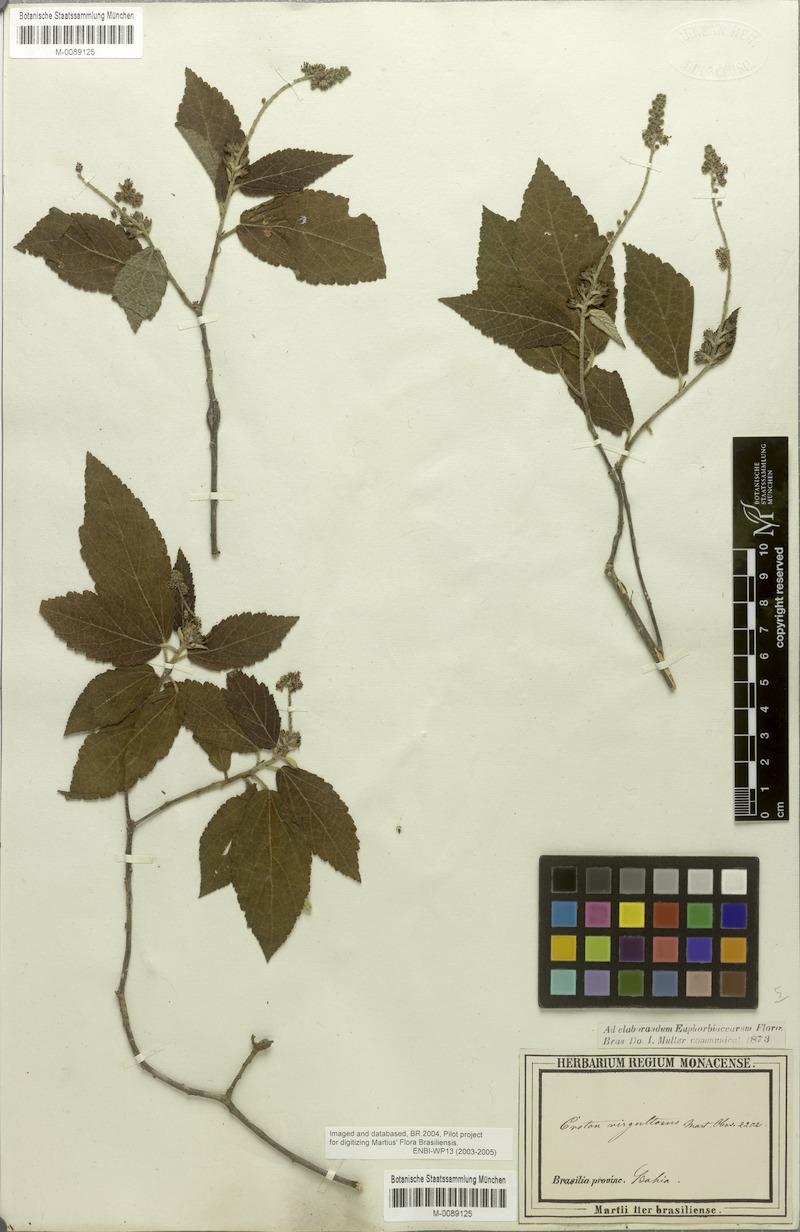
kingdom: Plantae
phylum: Tracheophyta
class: Magnoliopsida
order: Malpighiales
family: Euphorbiaceae
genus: Croton
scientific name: Croton virgultosus
